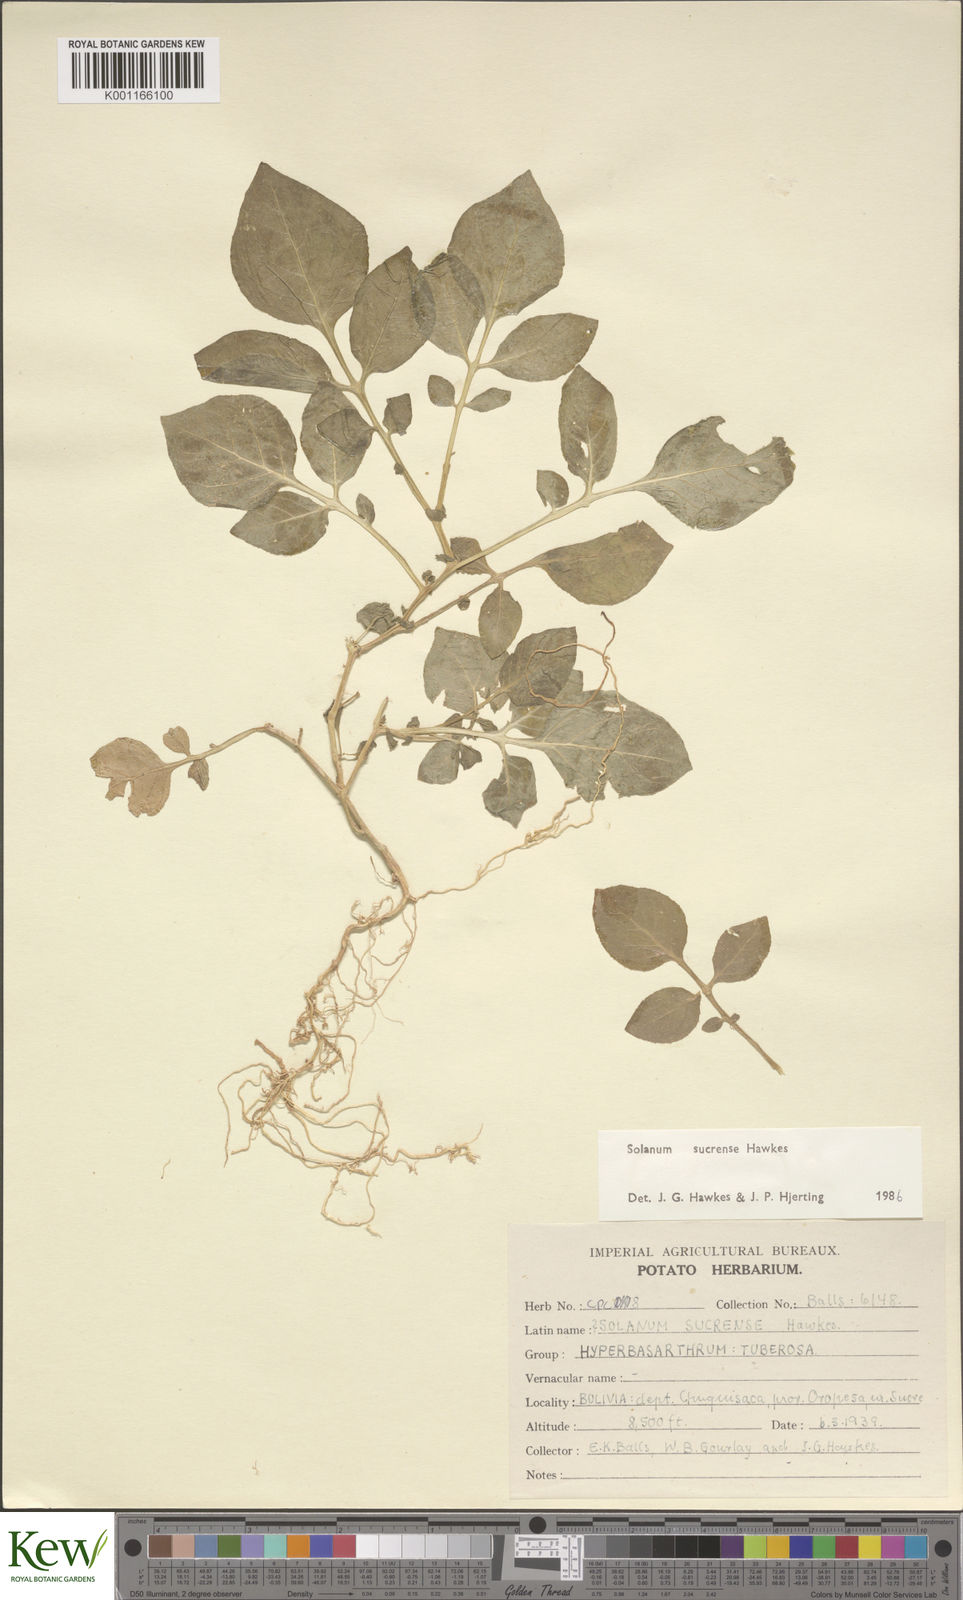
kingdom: Plantae
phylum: Tracheophyta
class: Magnoliopsida
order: Solanales
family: Solanaceae
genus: Solanum
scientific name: Solanum brevicaule
